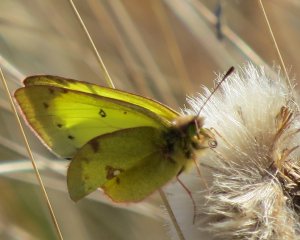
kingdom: Animalia
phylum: Arthropoda
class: Insecta
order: Lepidoptera
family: Pieridae
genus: Colias
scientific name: Colias philodice
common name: Clouded Sulphur
